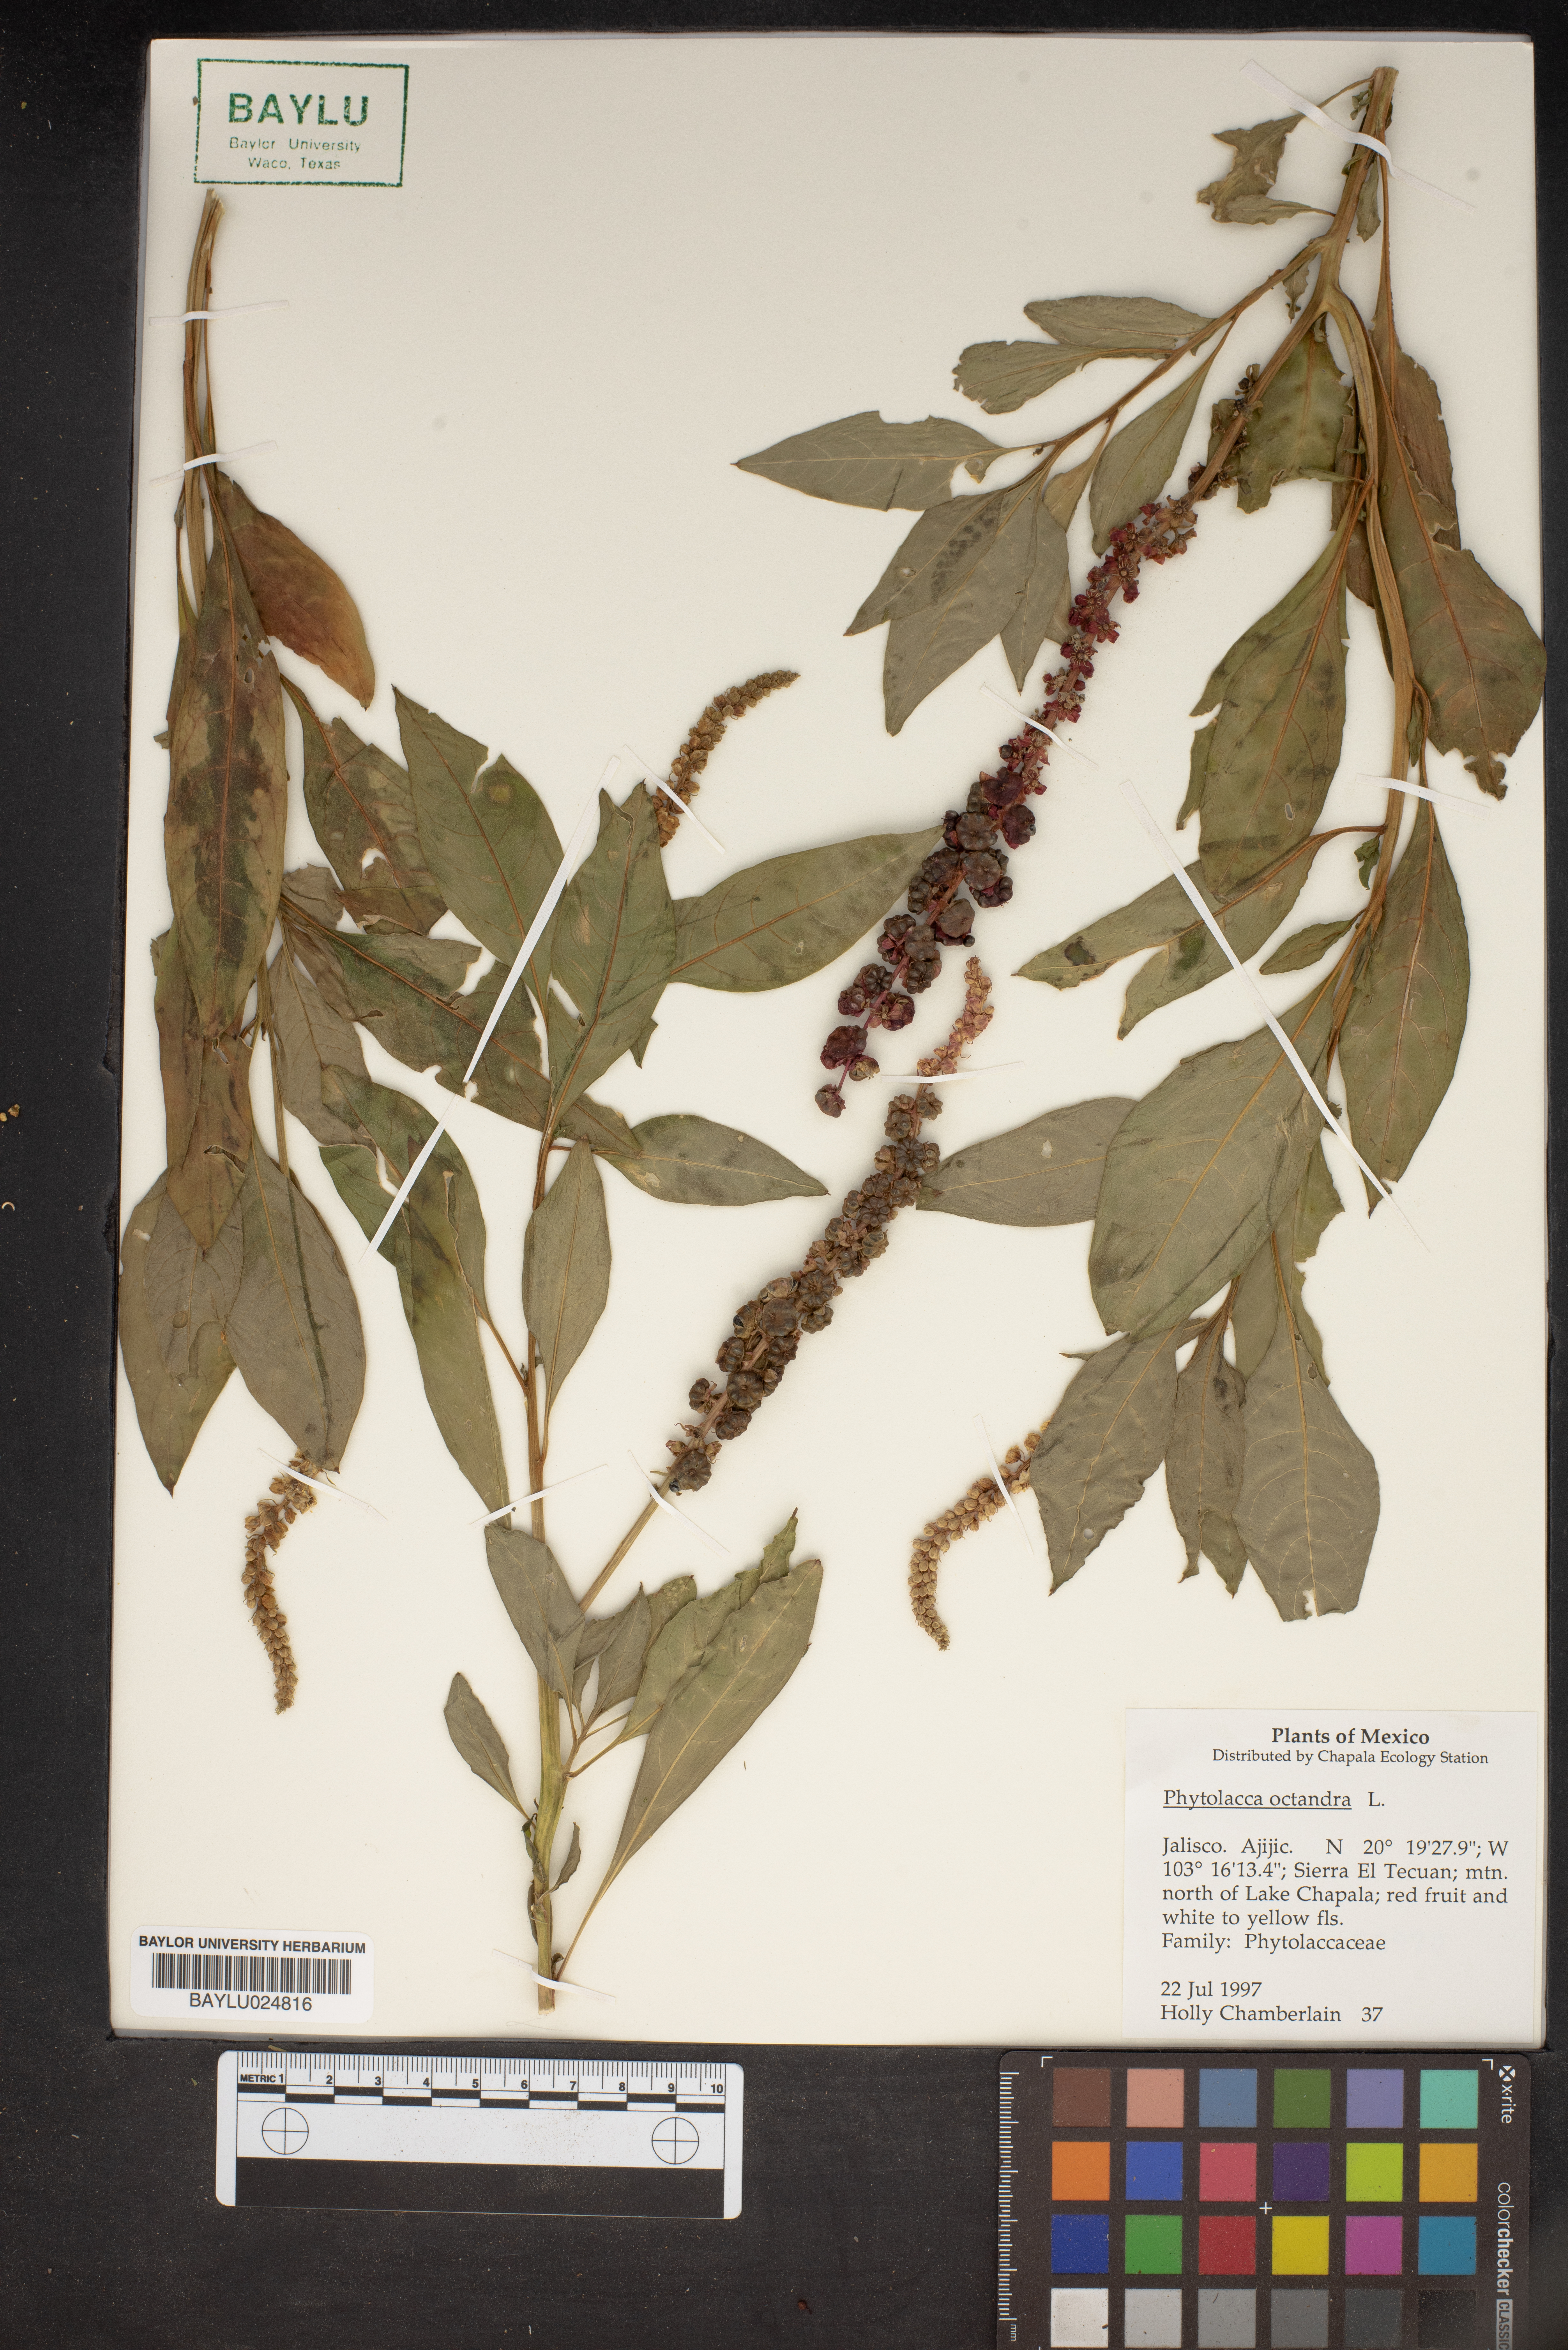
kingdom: Plantae
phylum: Tracheophyta
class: Magnoliopsida
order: Caryophyllales
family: Phytolaccaceae
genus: Phytolacca
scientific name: Phytolacca icosandra
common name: Button pokeweed
